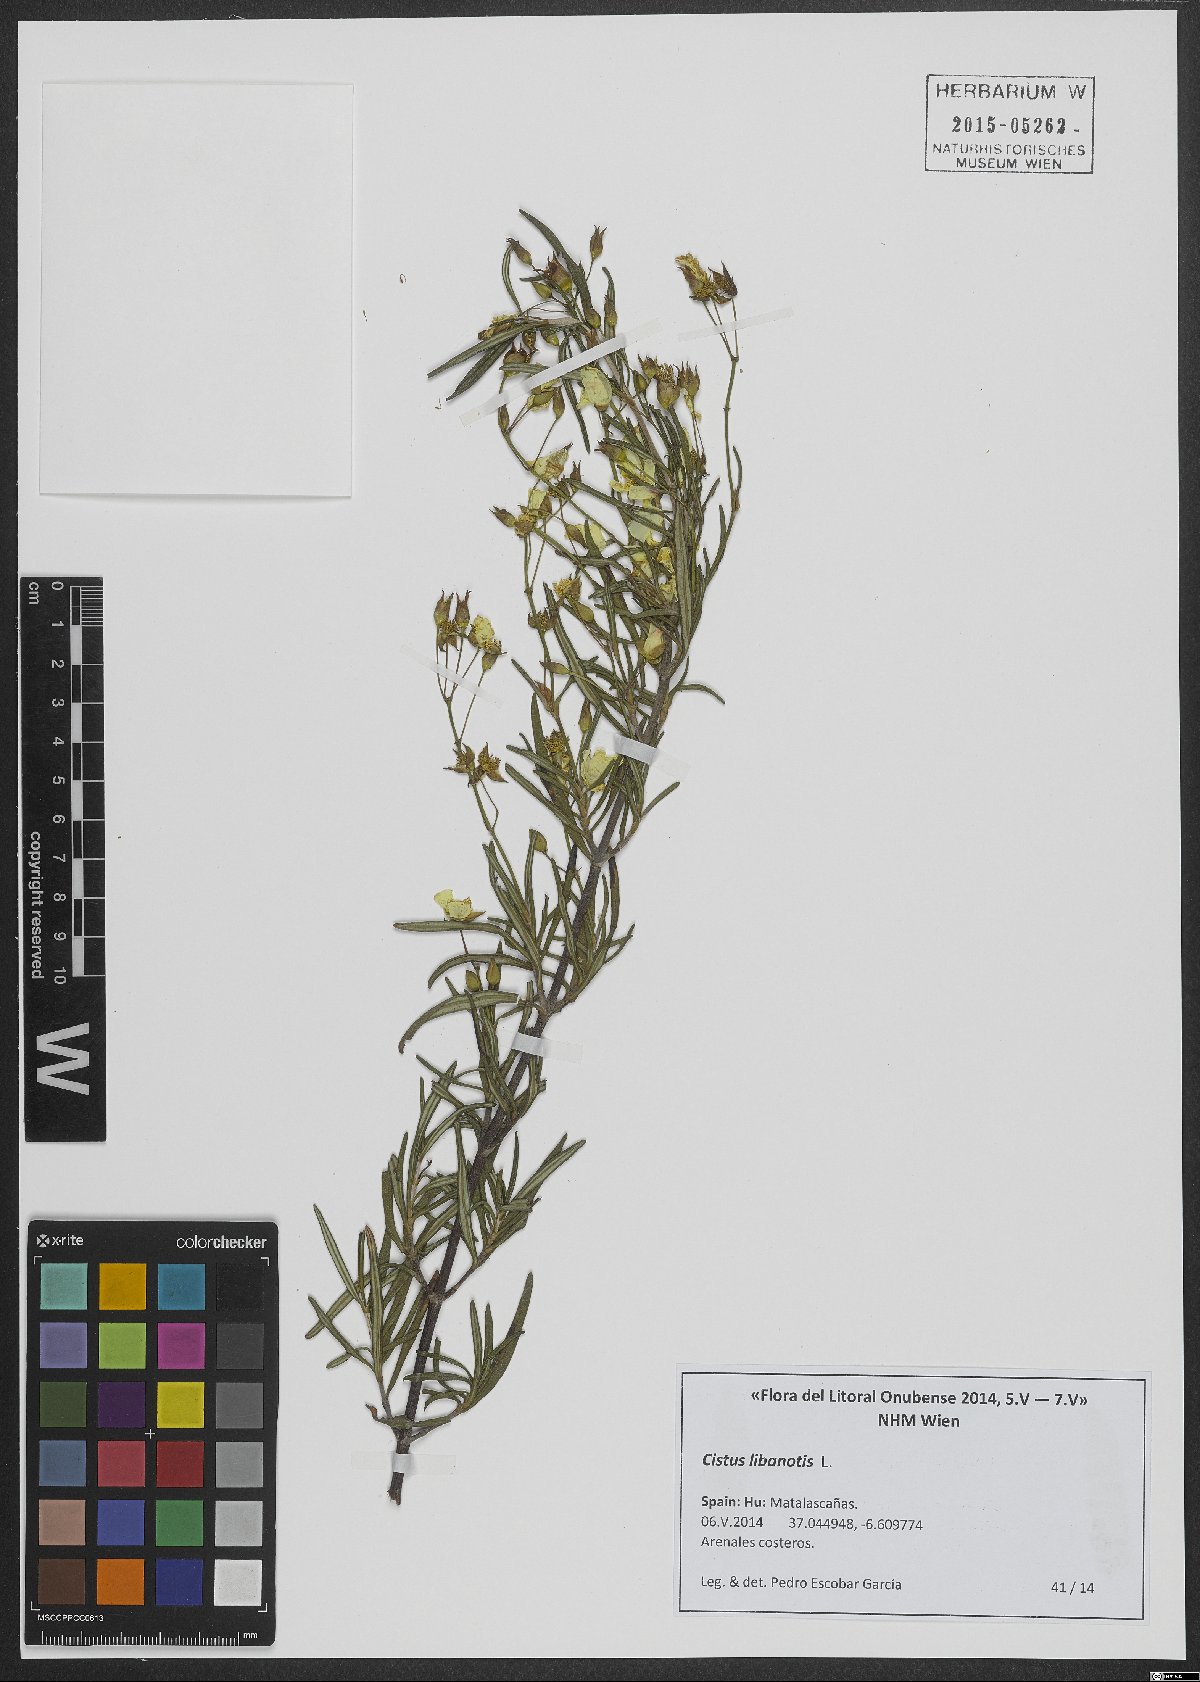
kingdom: Plantae
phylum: Tracheophyta
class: Magnoliopsida
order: Malvales
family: Cistaceae
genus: Cistus
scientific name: Cistus libanotis
